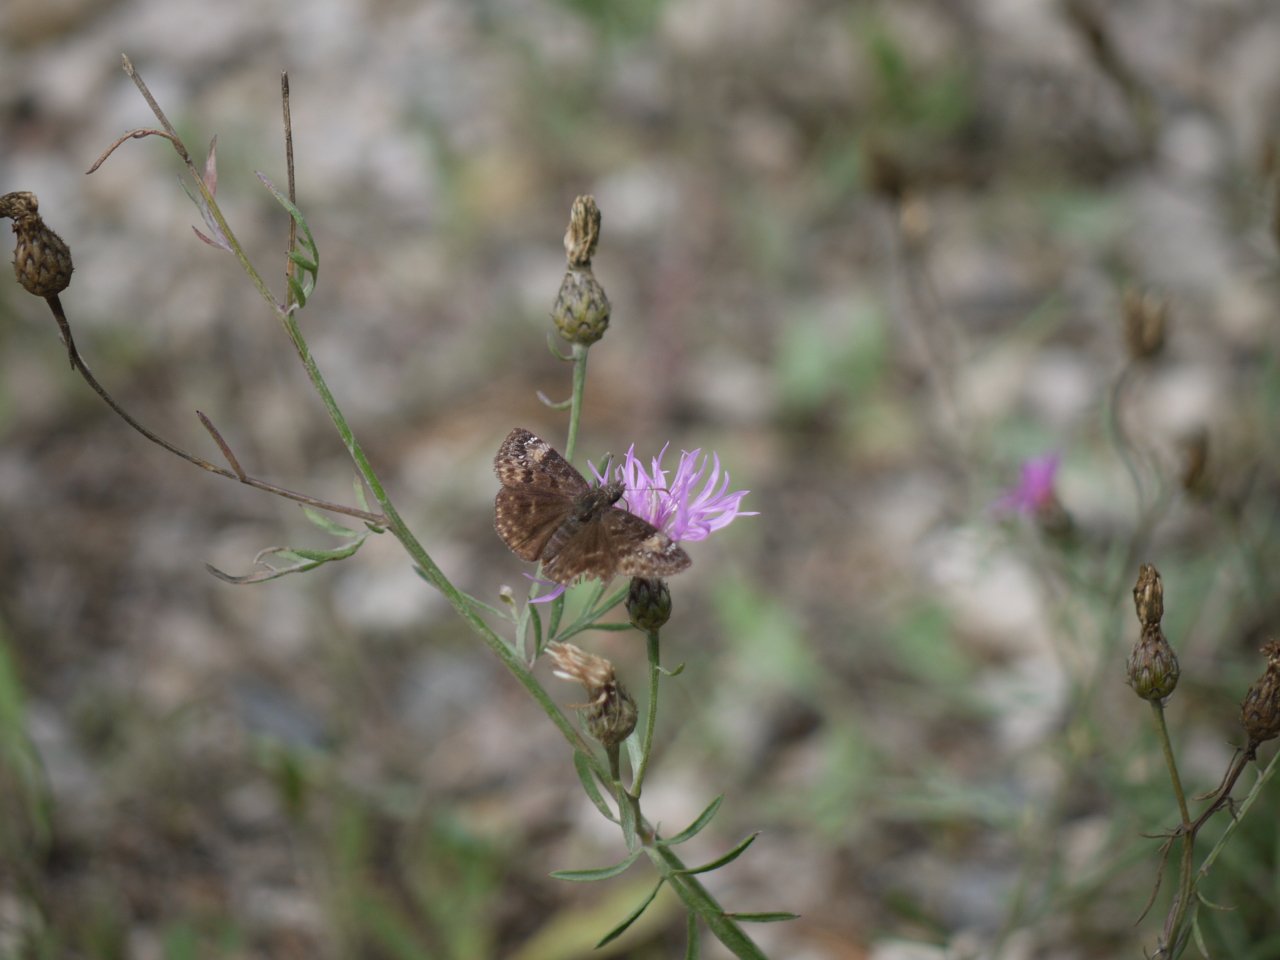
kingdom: Animalia
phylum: Arthropoda
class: Insecta
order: Lepidoptera
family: Hesperiidae
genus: Gesta
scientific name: Gesta
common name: Columbine Duskywing
